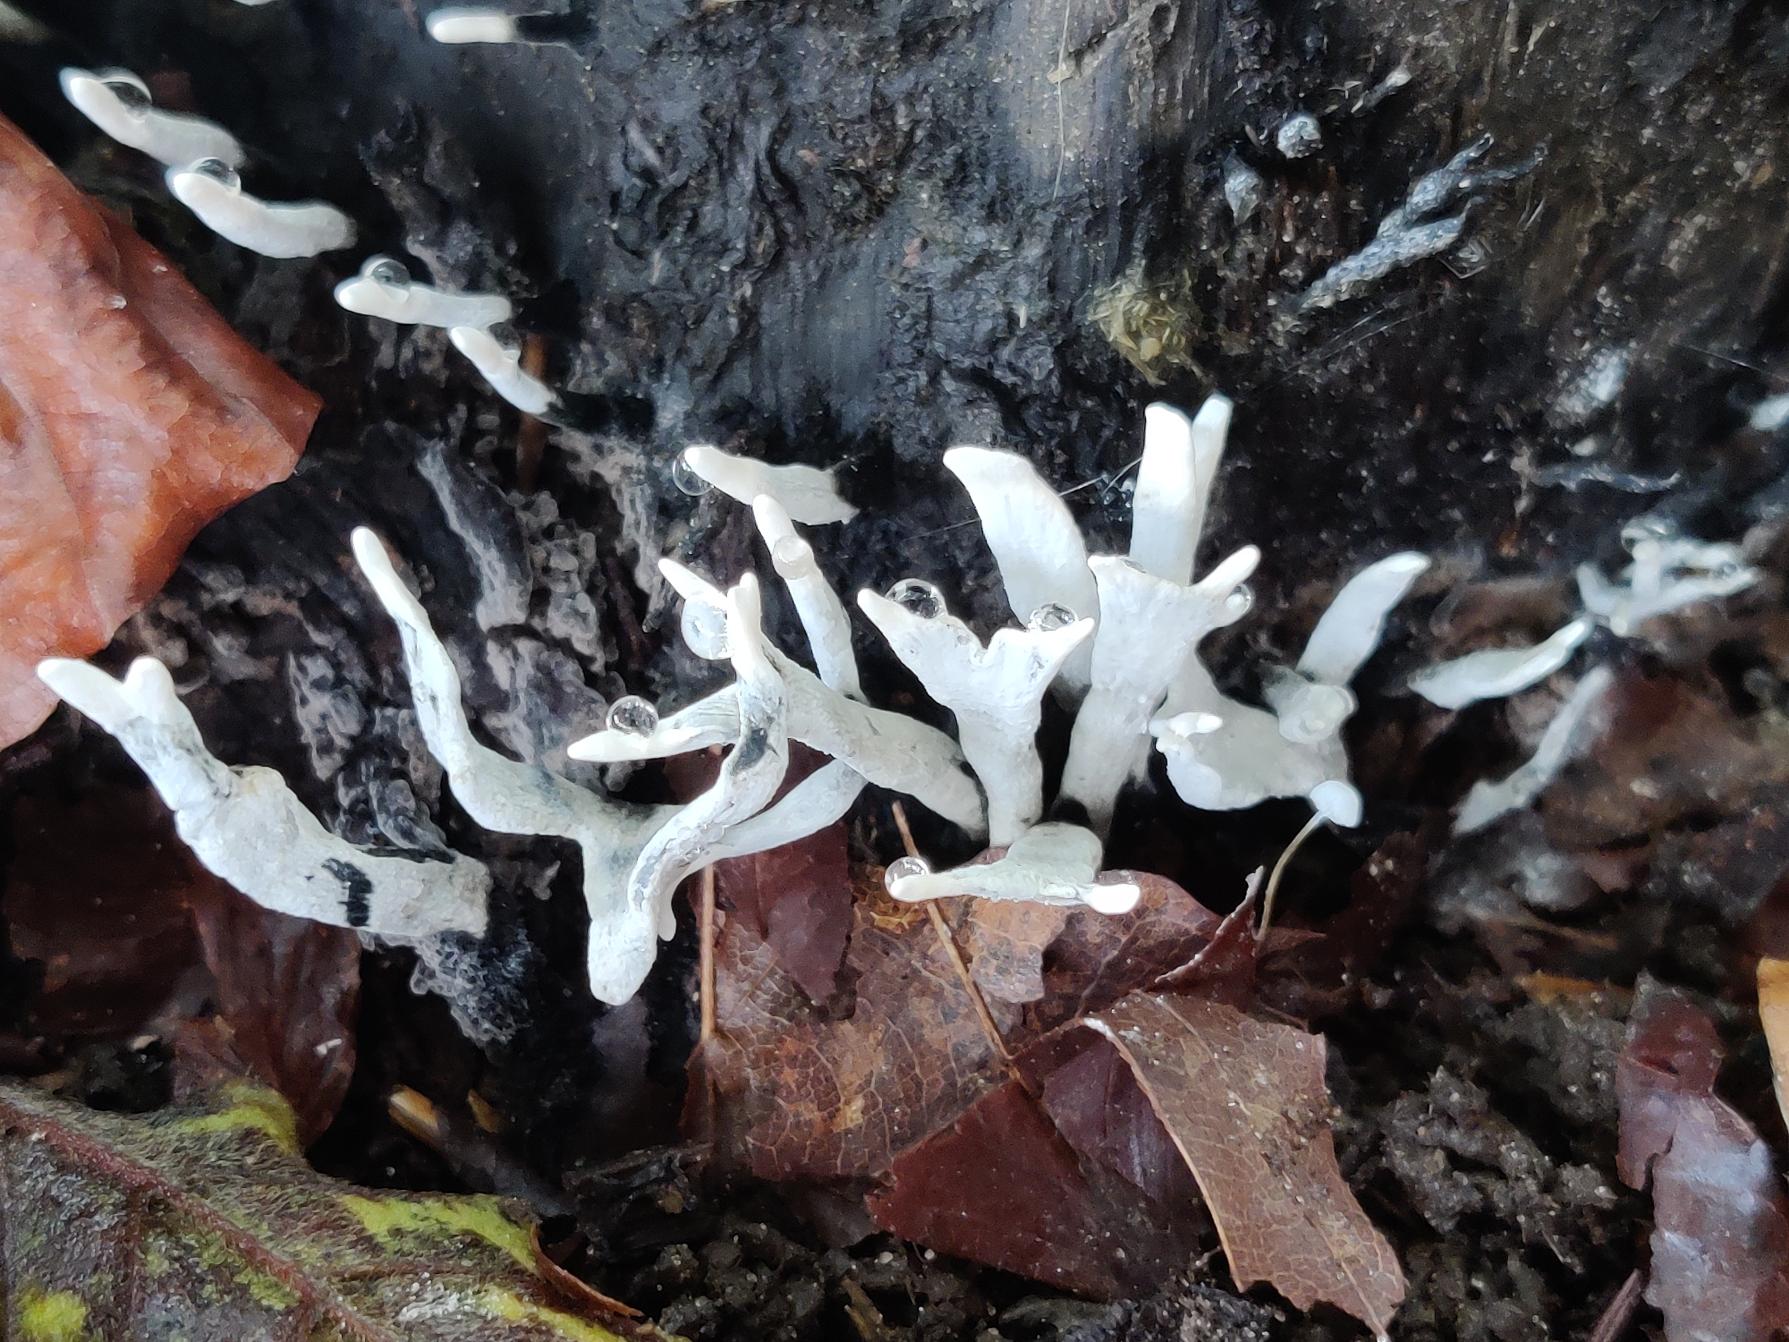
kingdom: Fungi
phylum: Ascomycota
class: Sordariomycetes
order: Xylariales
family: Xylariaceae
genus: Xylaria
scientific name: Xylaria hypoxylon
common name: Grenet stødsvamp
